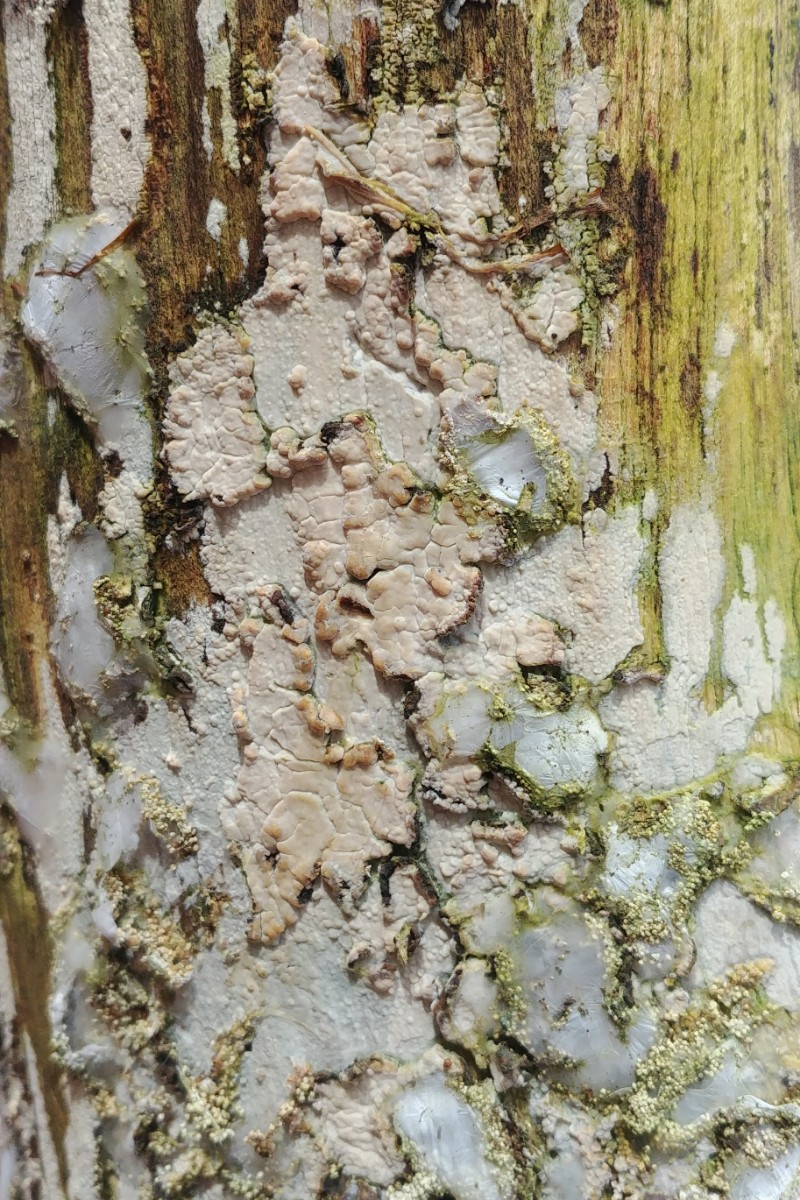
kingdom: Fungi
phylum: Basidiomycota
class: Agaricomycetes
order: Corticiales
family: Corticiaceae
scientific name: Corticiaceae
